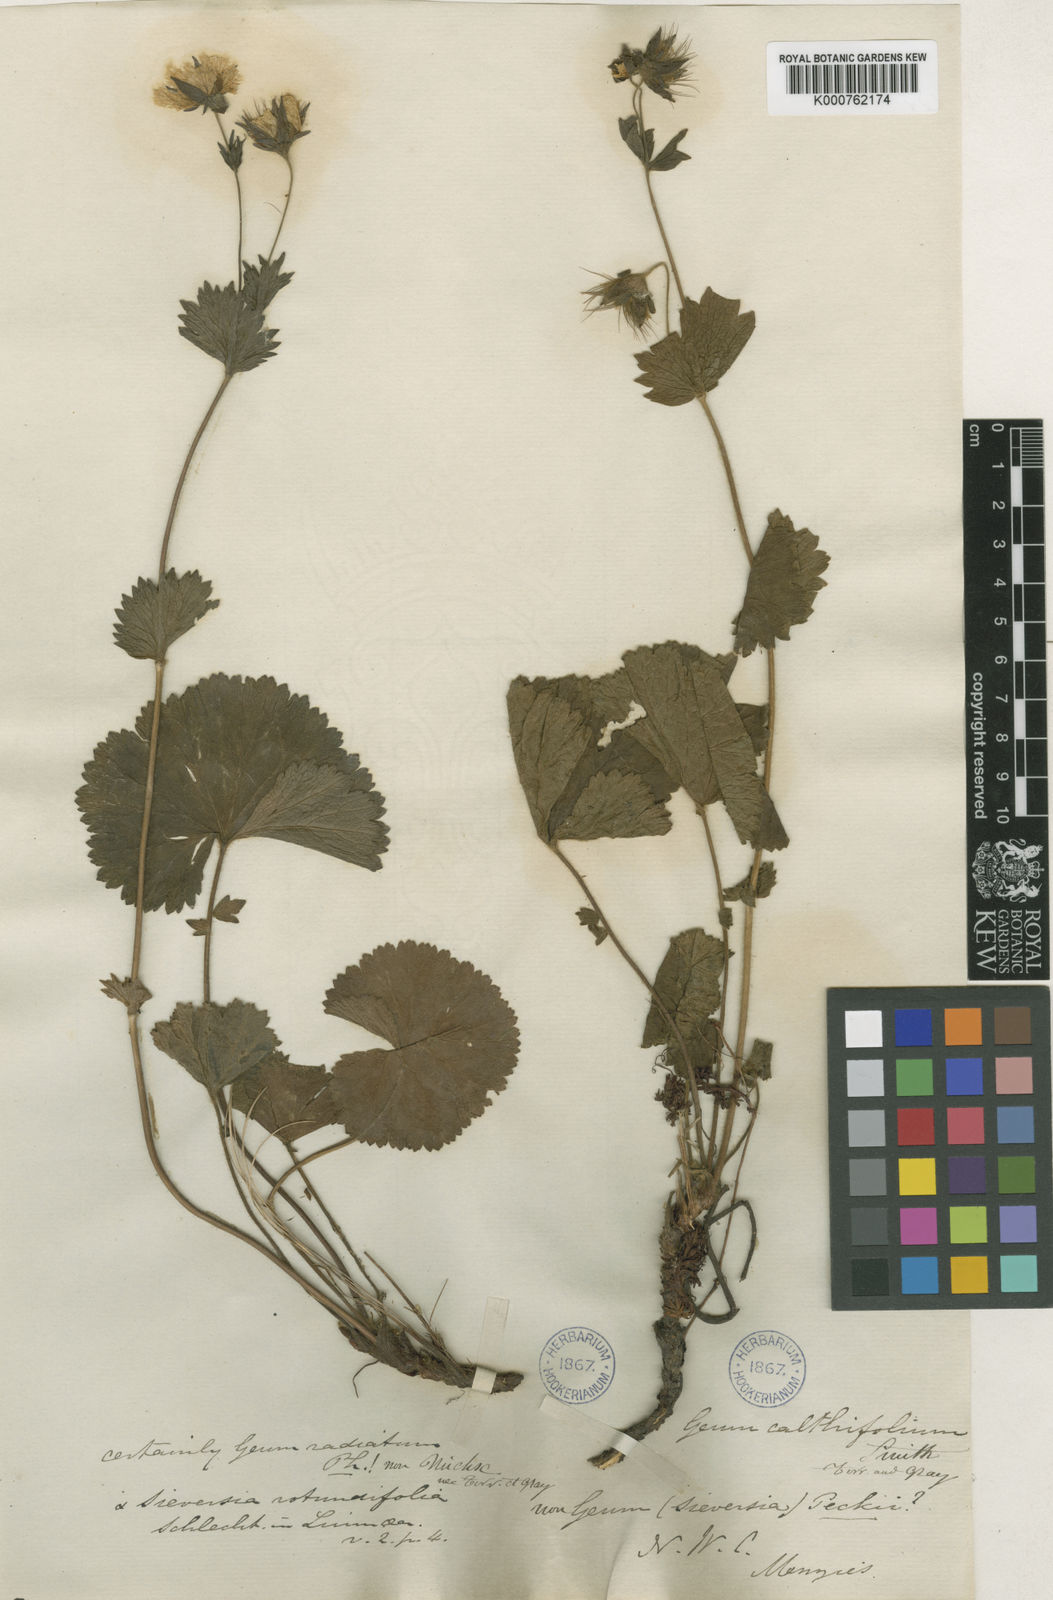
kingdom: Plantae
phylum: Tracheophyta
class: Magnoliopsida
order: Rosales
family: Rosaceae
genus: Geum
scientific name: Geum calthifolium
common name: Caltha-leaved avens
